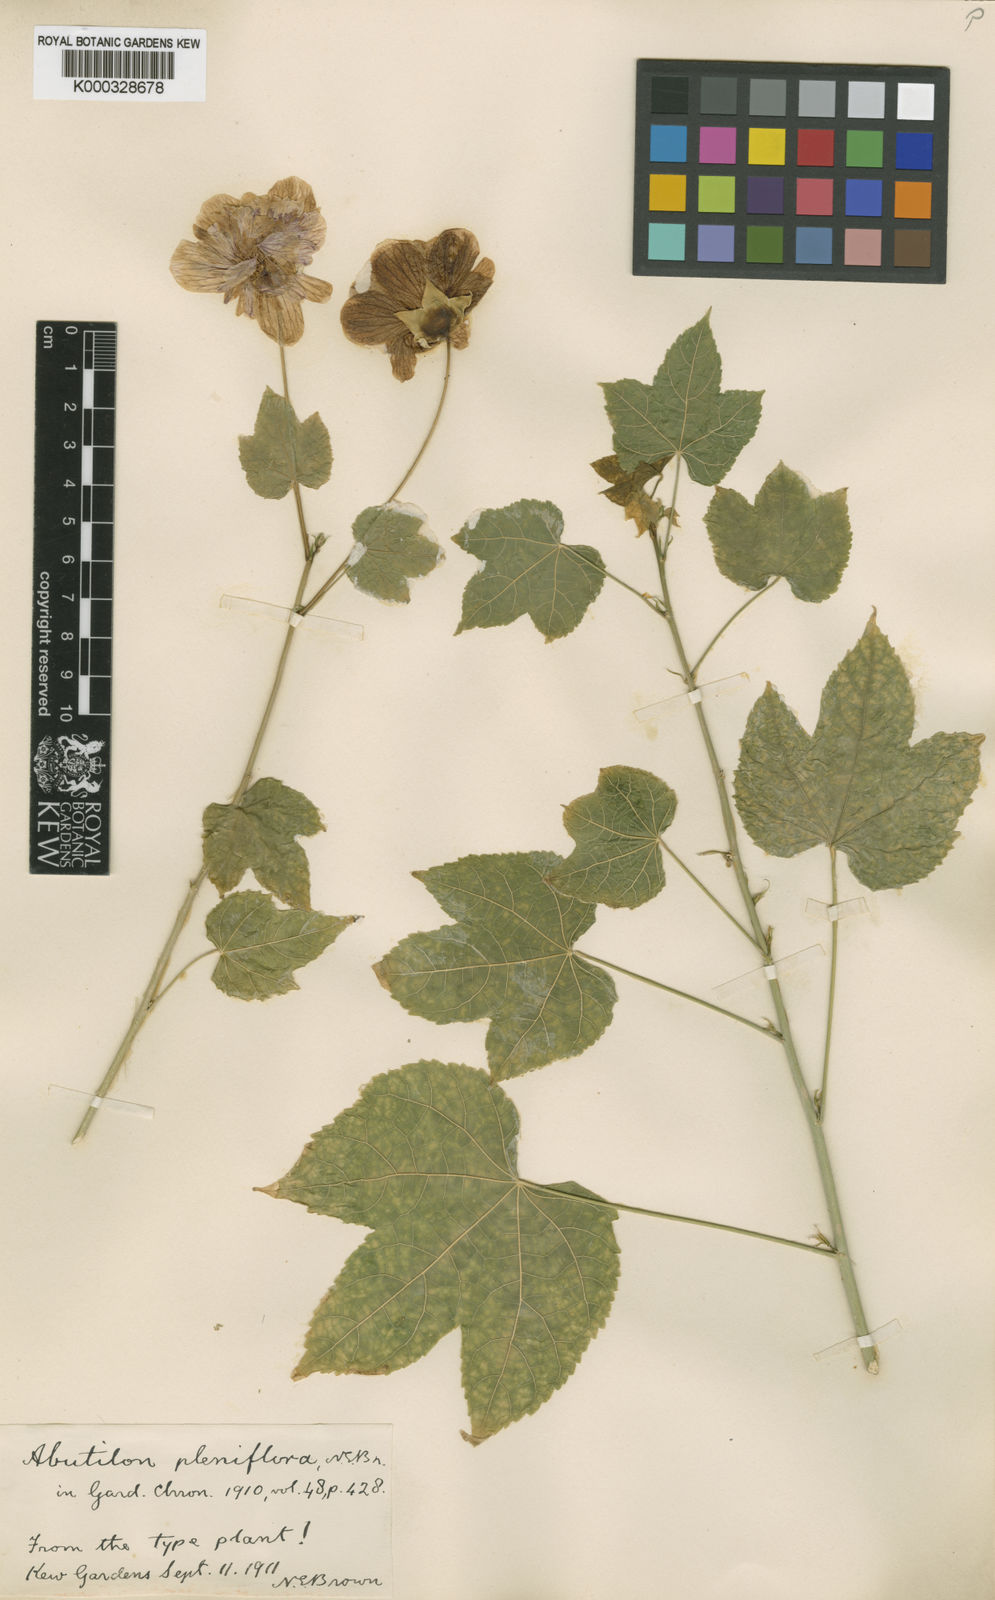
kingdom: Plantae
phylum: Tracheophyta
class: Magnoliopsida
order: Malvales
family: Malvaceae
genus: Callianthe
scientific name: Callianthe striata
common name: Flowering-maple
